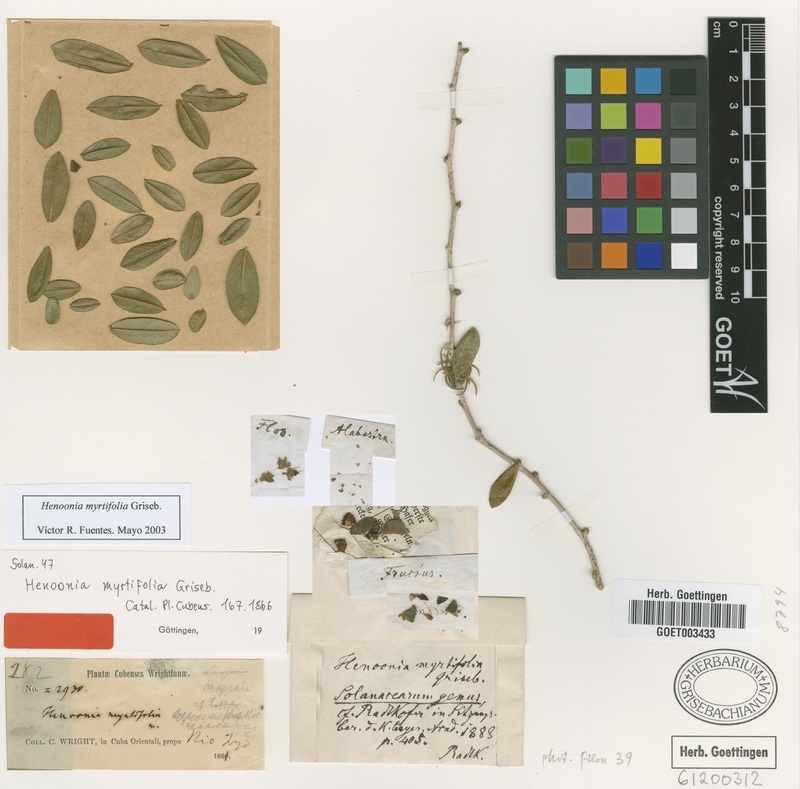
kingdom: Plantae
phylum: Tracheophyta
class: Magnoliopsida
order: Solanales
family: Solanaceae
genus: Henoonia
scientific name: Henoonia myrtifolia
